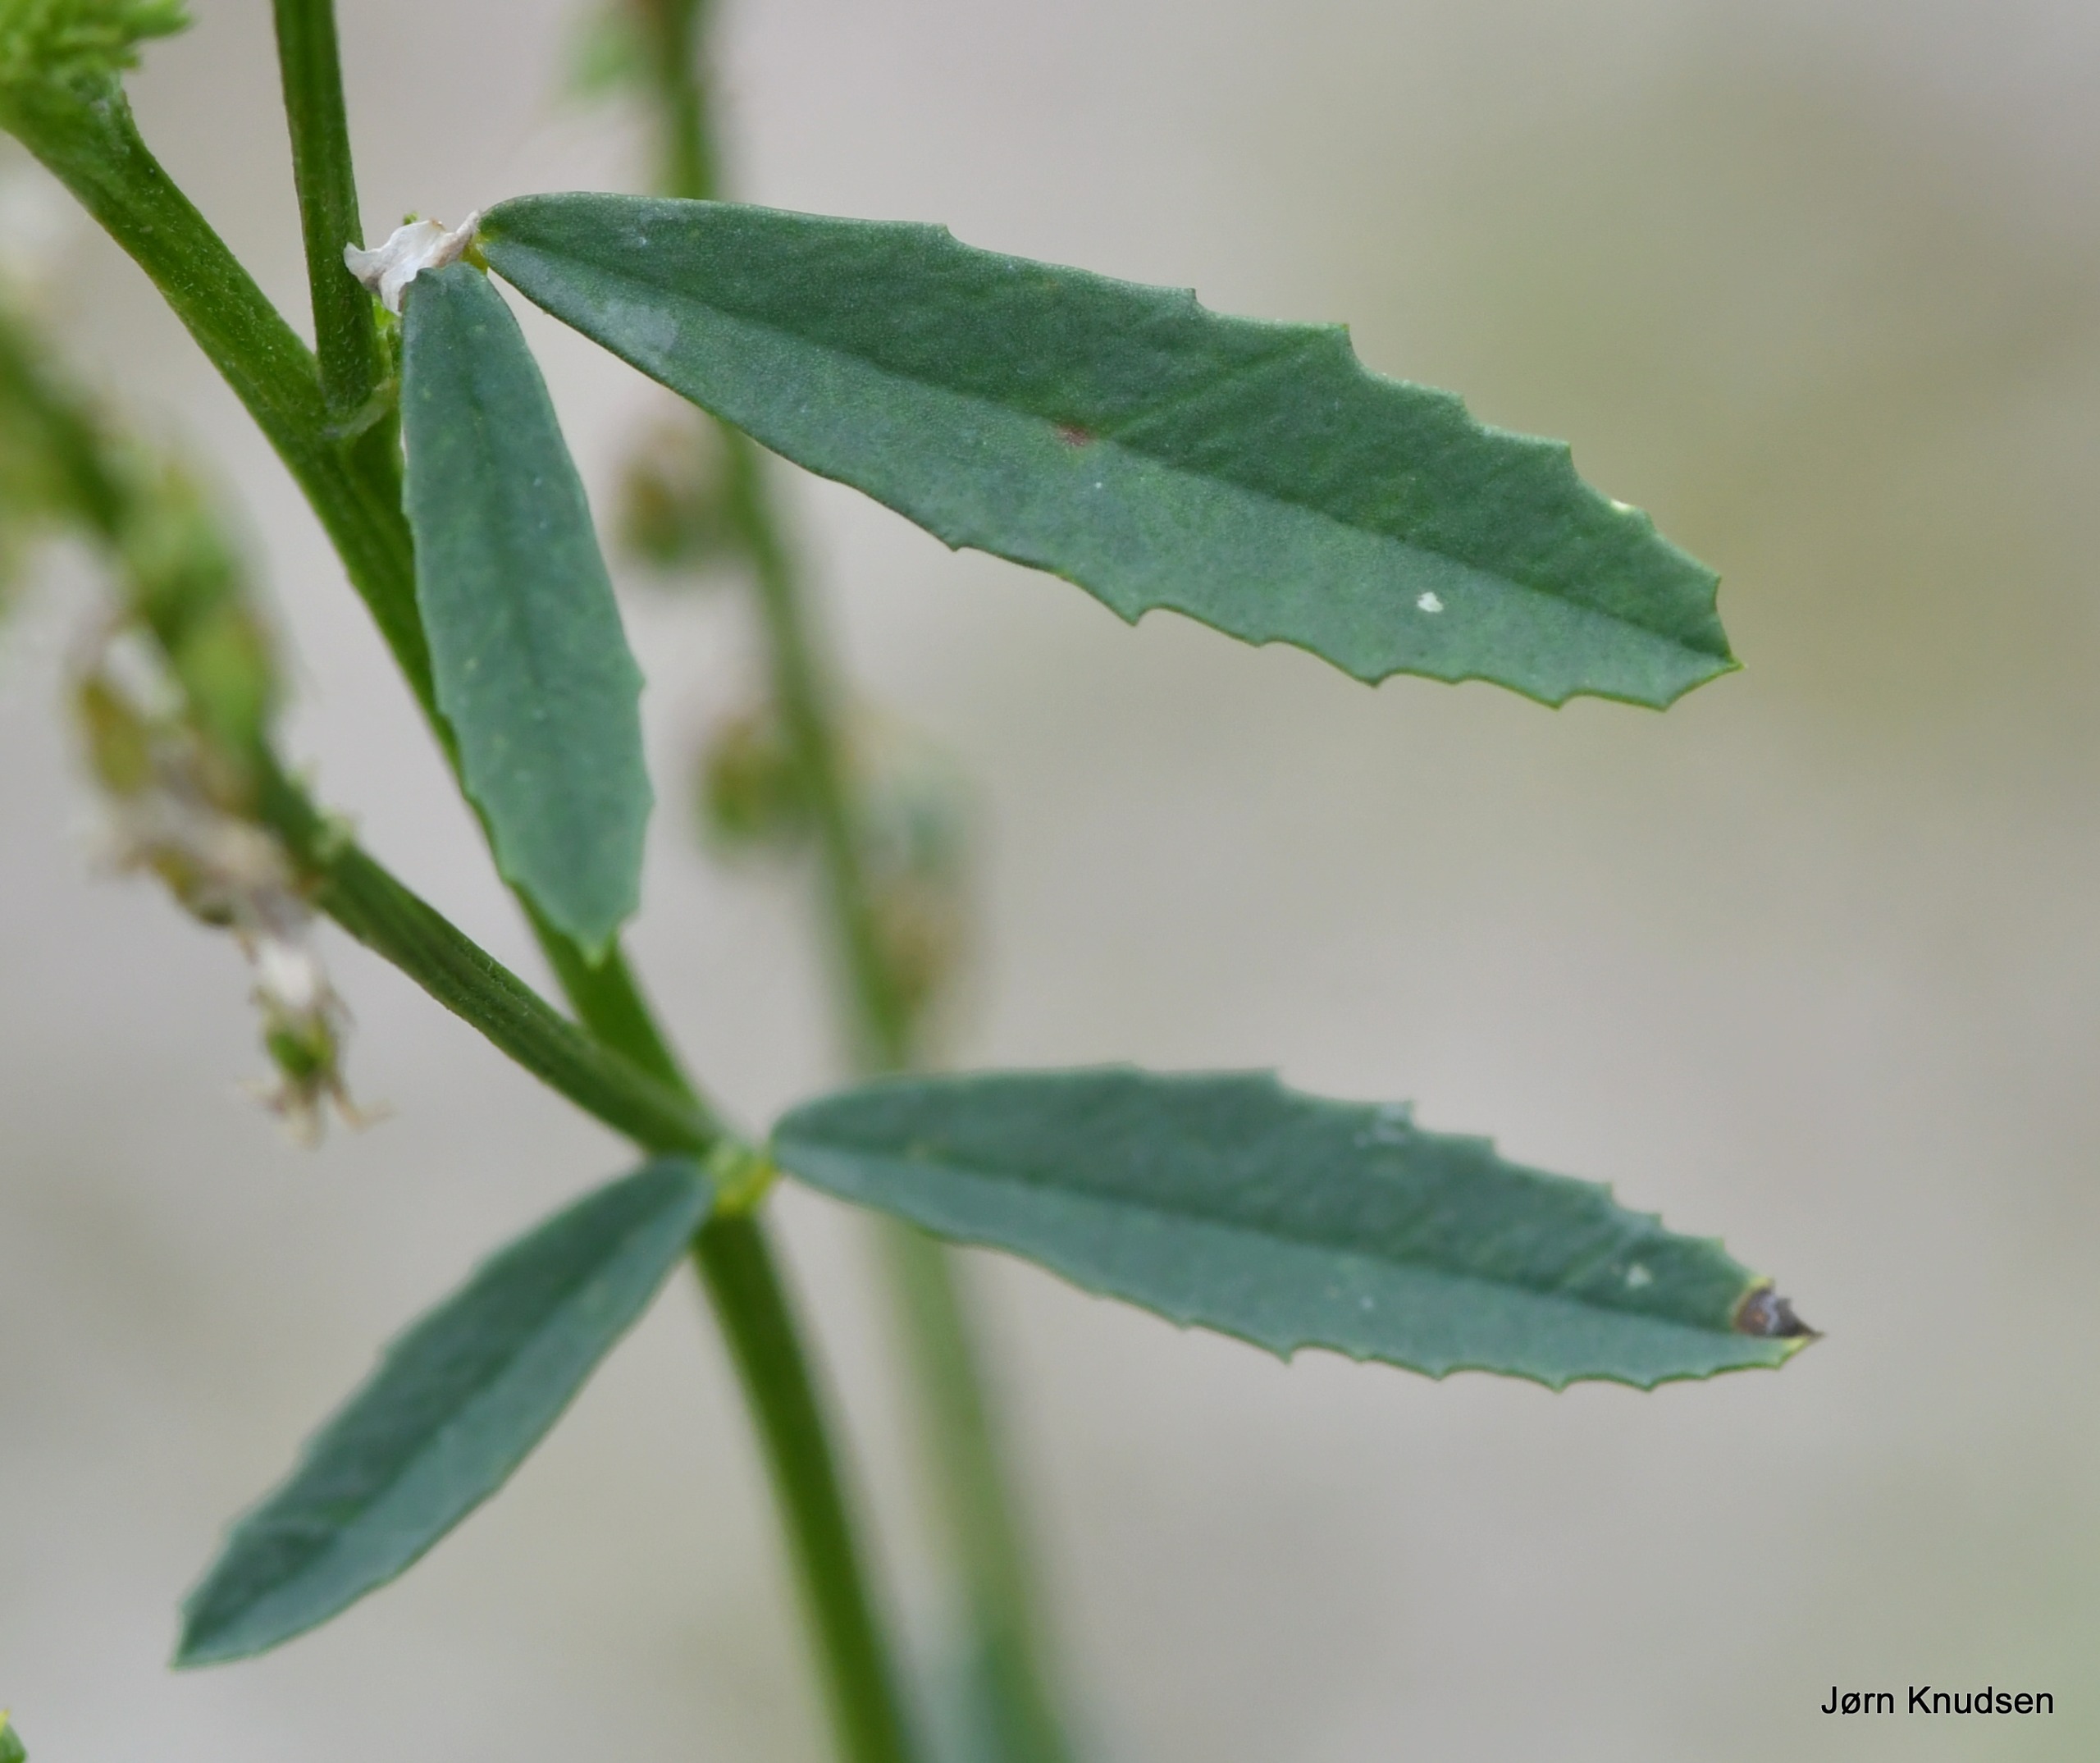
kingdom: Plantae
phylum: Tracheophyta
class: Magnoliopsida
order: Fabales
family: Fabaceae
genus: Melilotus
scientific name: Melilotus albus
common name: Hvid stenkløver
